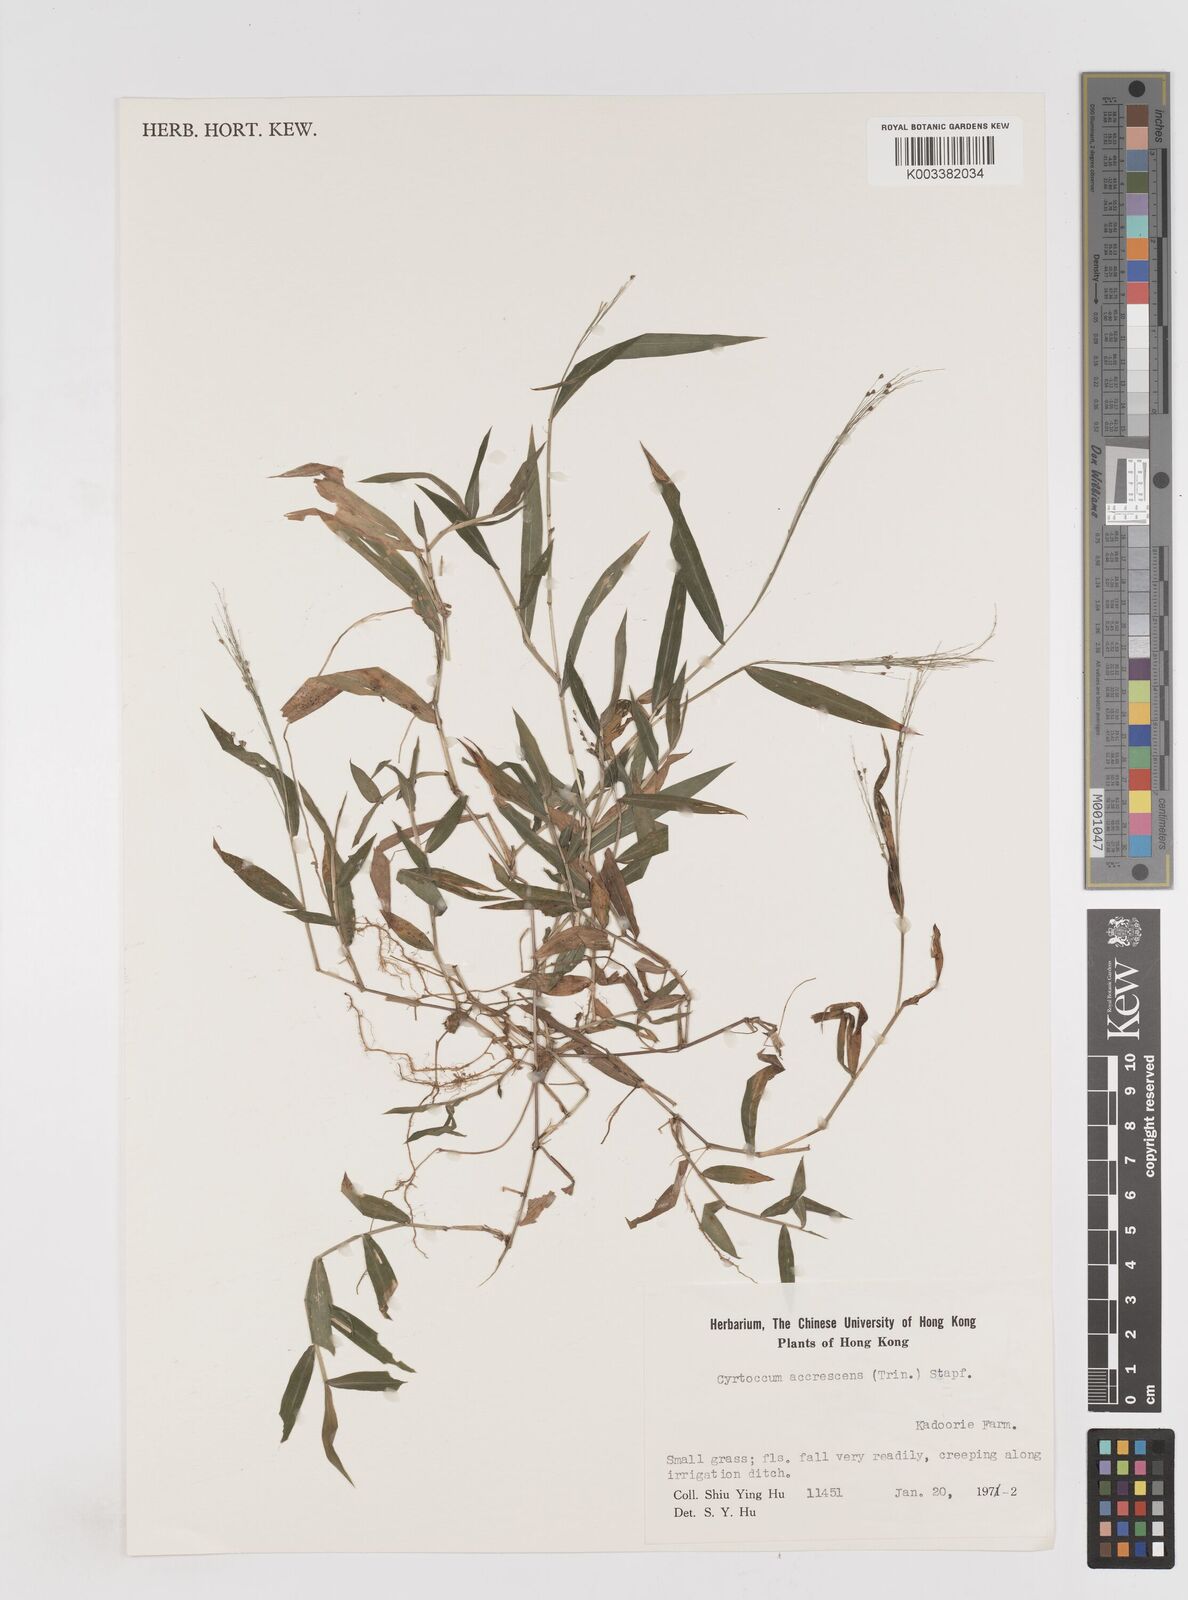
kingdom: Plantae
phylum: Tracheophyta
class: Liliopsida
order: Poales
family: Poaceae
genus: Cyrtococcum
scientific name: Cyrtococcum accrescens
